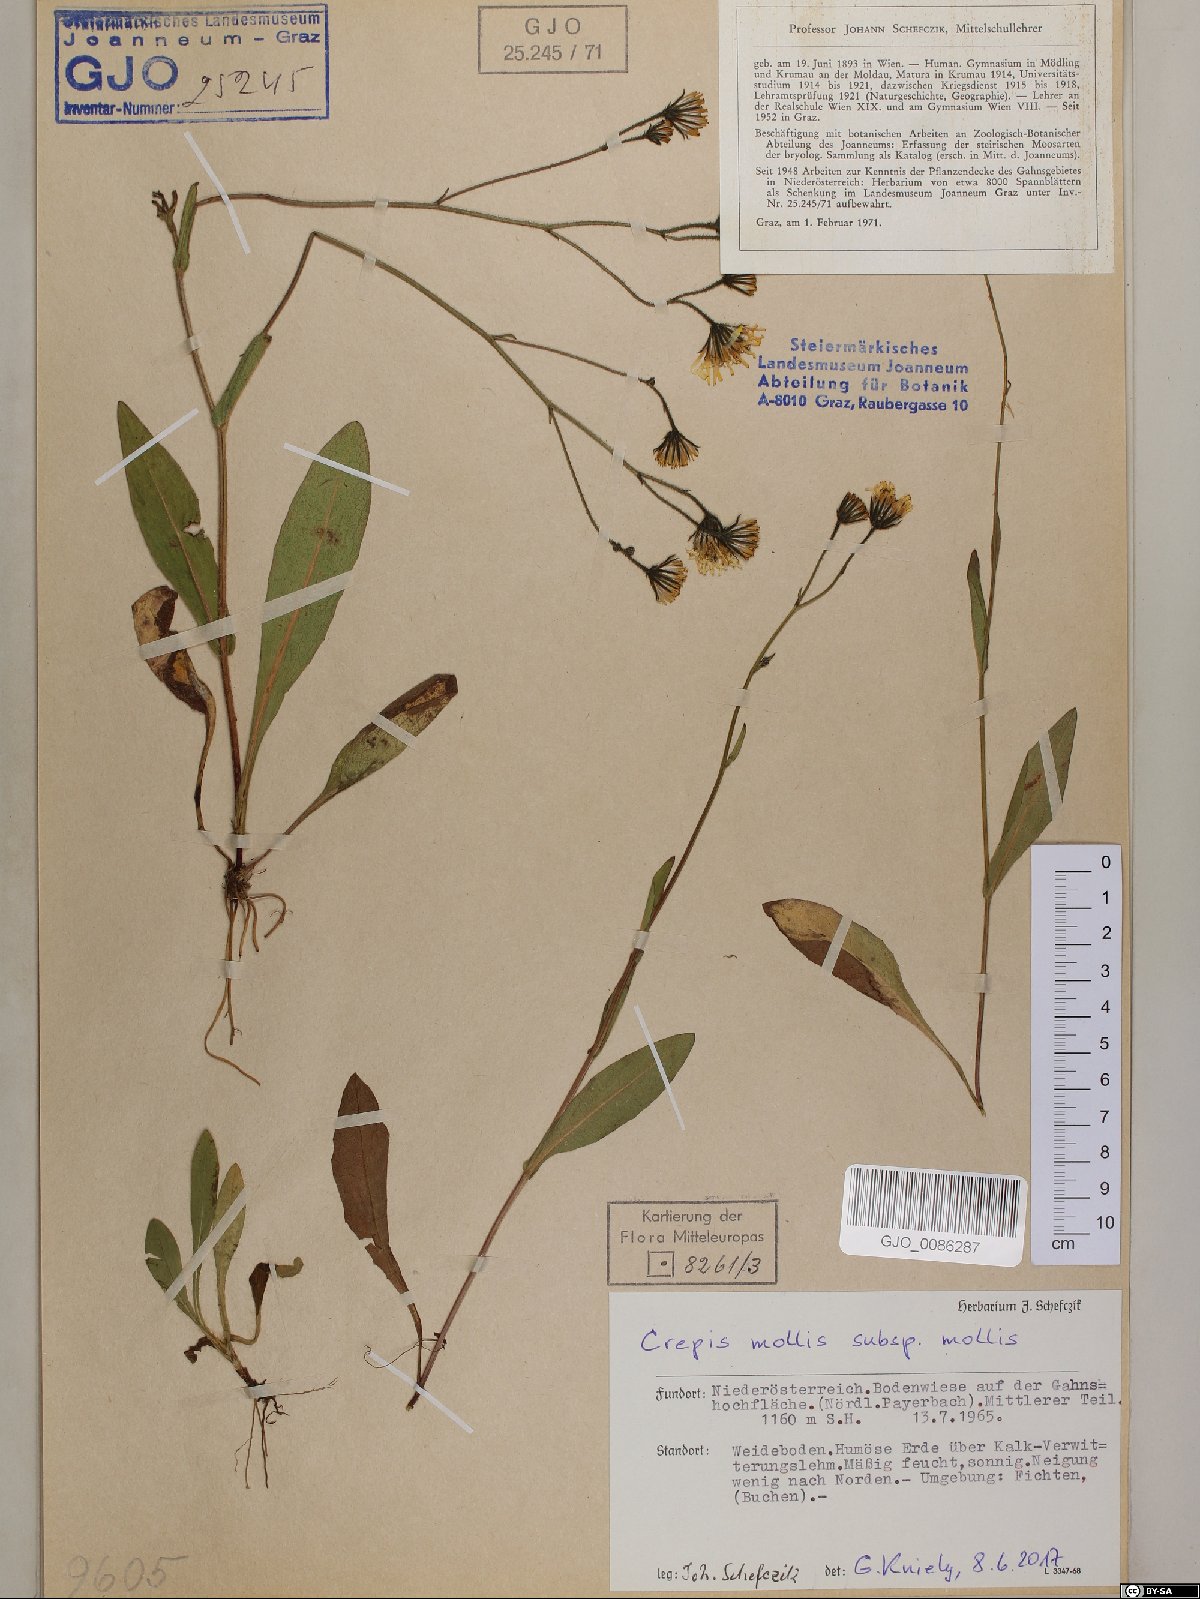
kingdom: Plantae
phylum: Tracheophyta
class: Magnoliopsida
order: Asterales
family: Asteraceae
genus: Crepis
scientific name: Crepis mollis
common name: Northern hawk's-beard
